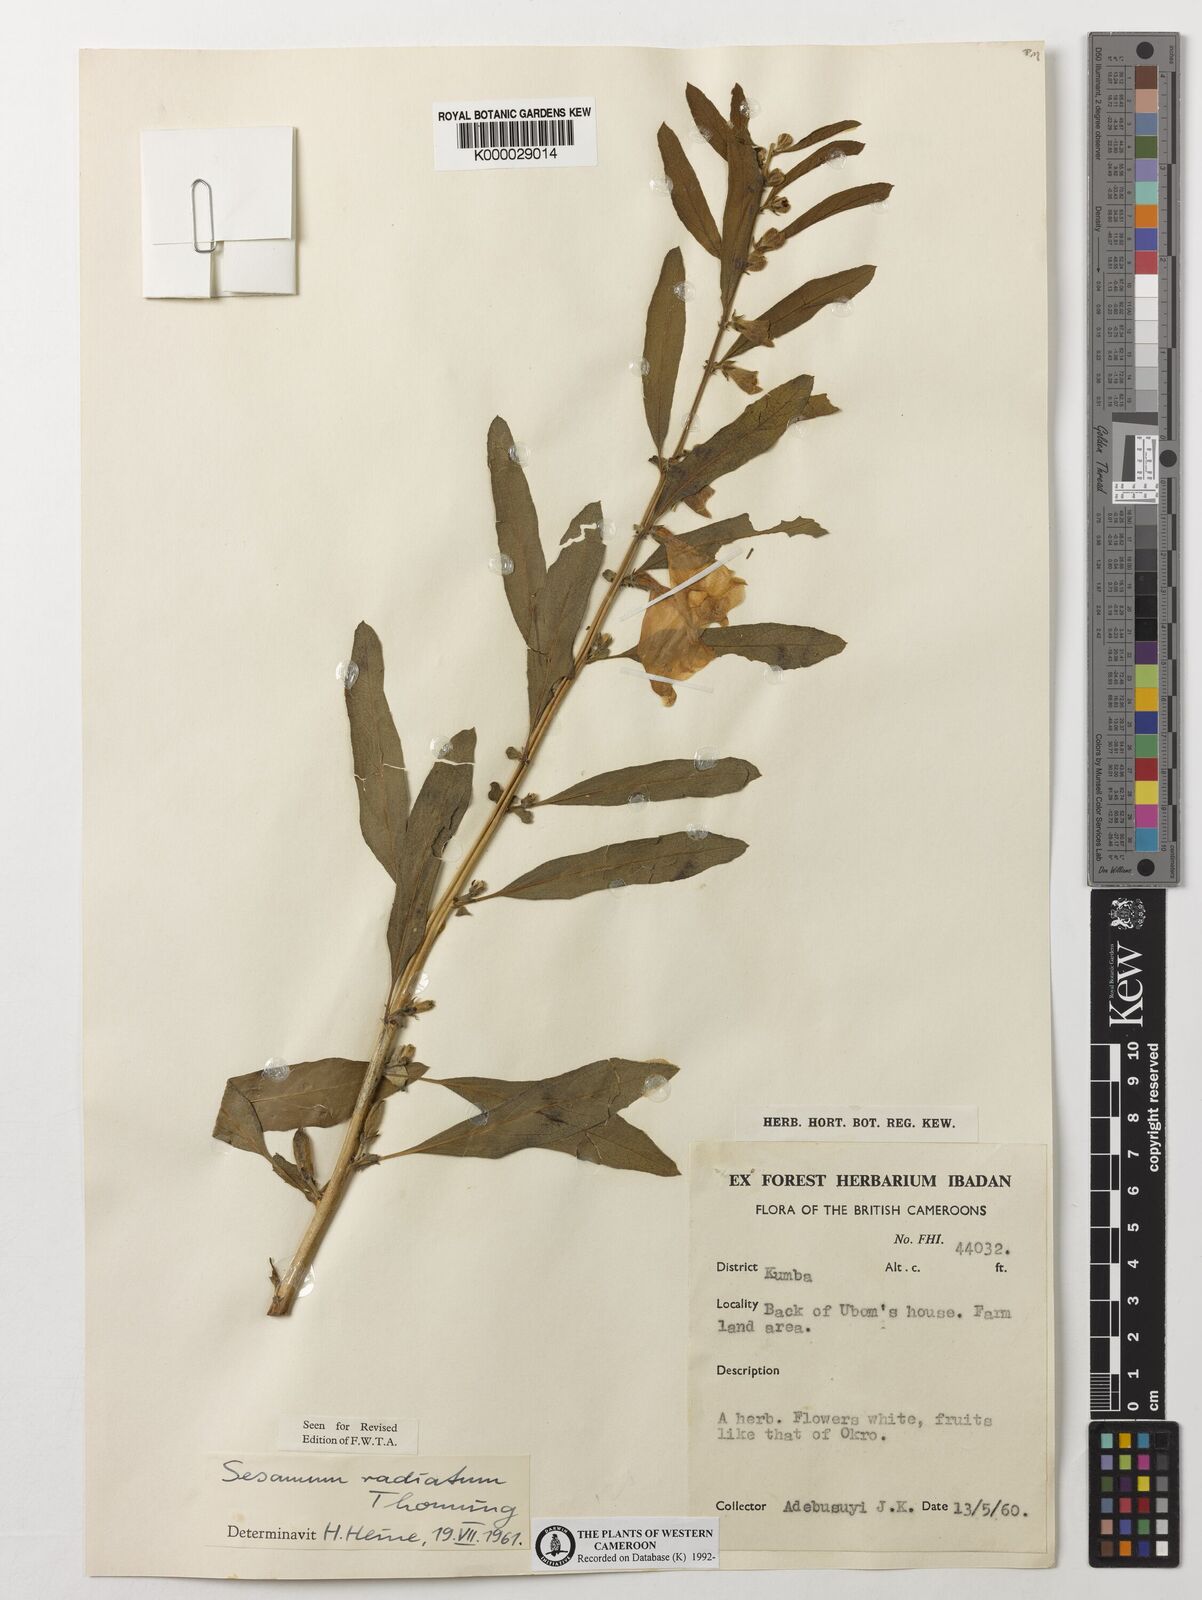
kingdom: Plantae
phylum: Tracheophyta
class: Magnoliopsida
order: Lamiales
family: Pedaliaceae
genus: Sesamum
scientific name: Sesamum
